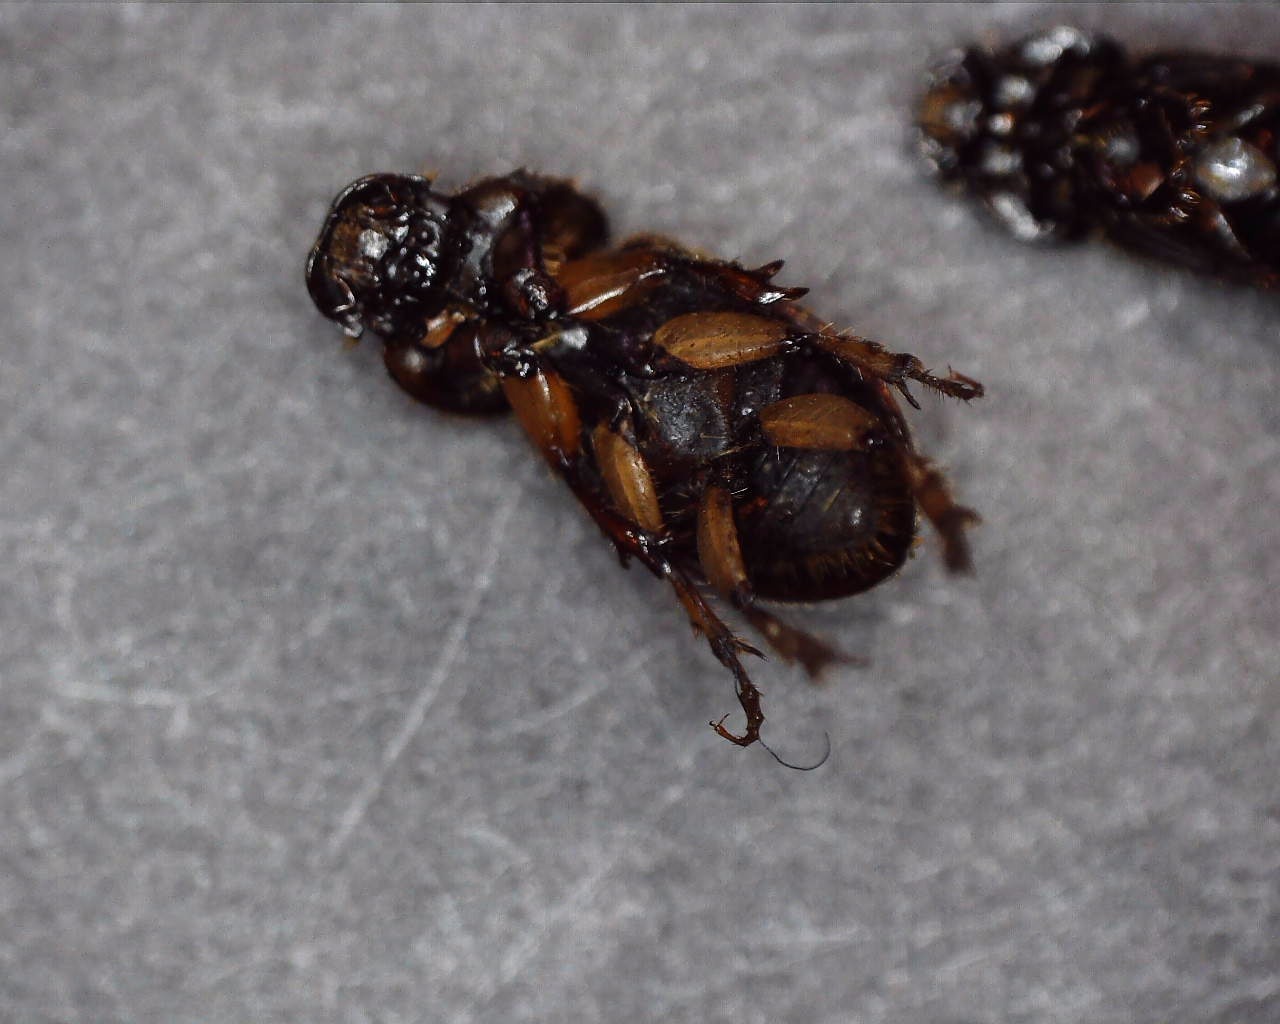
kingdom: Animalia
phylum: Arthropoda
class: Insecta
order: Coleoptera
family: Scarabaeidae
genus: Nimbus
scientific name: Nimbus contaminatus
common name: Sandhåret møgbille
